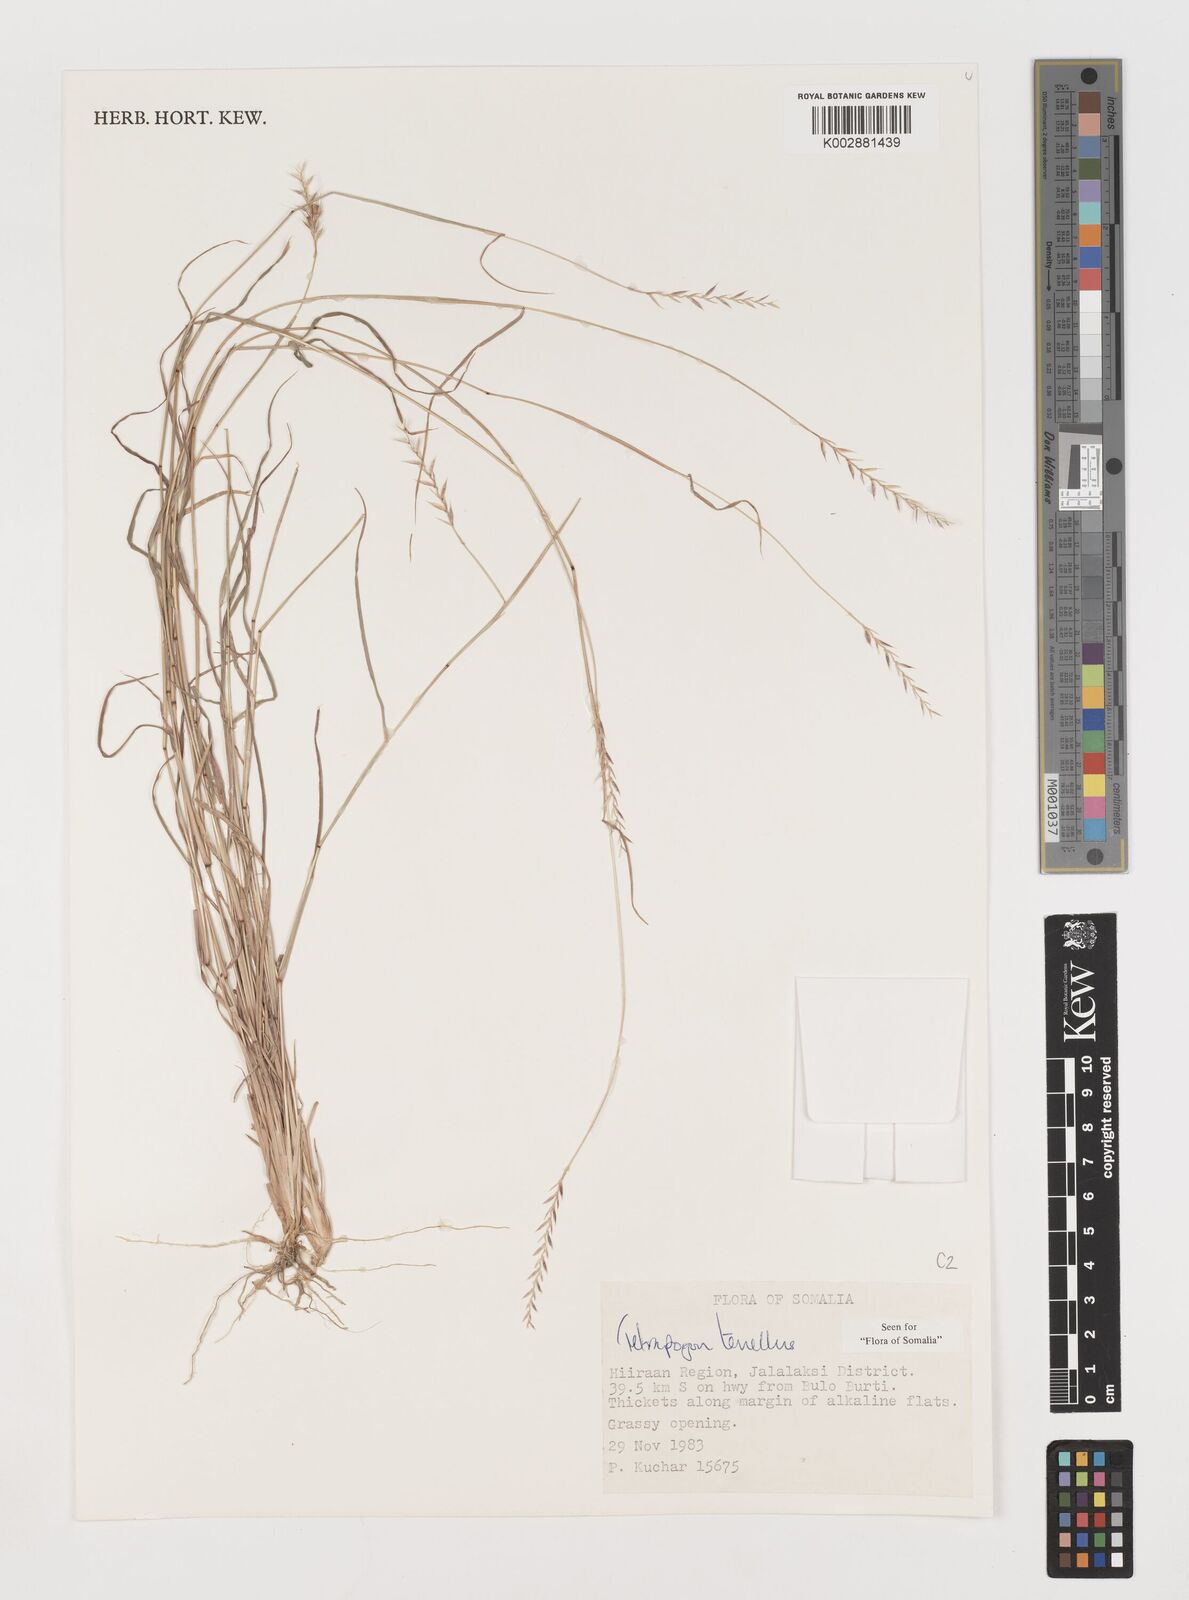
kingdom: Plantae
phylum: Tracheophyta
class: Liliopsida
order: Poales
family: Poaceae
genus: Tetrapogon
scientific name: Tetrapogon tenellus
